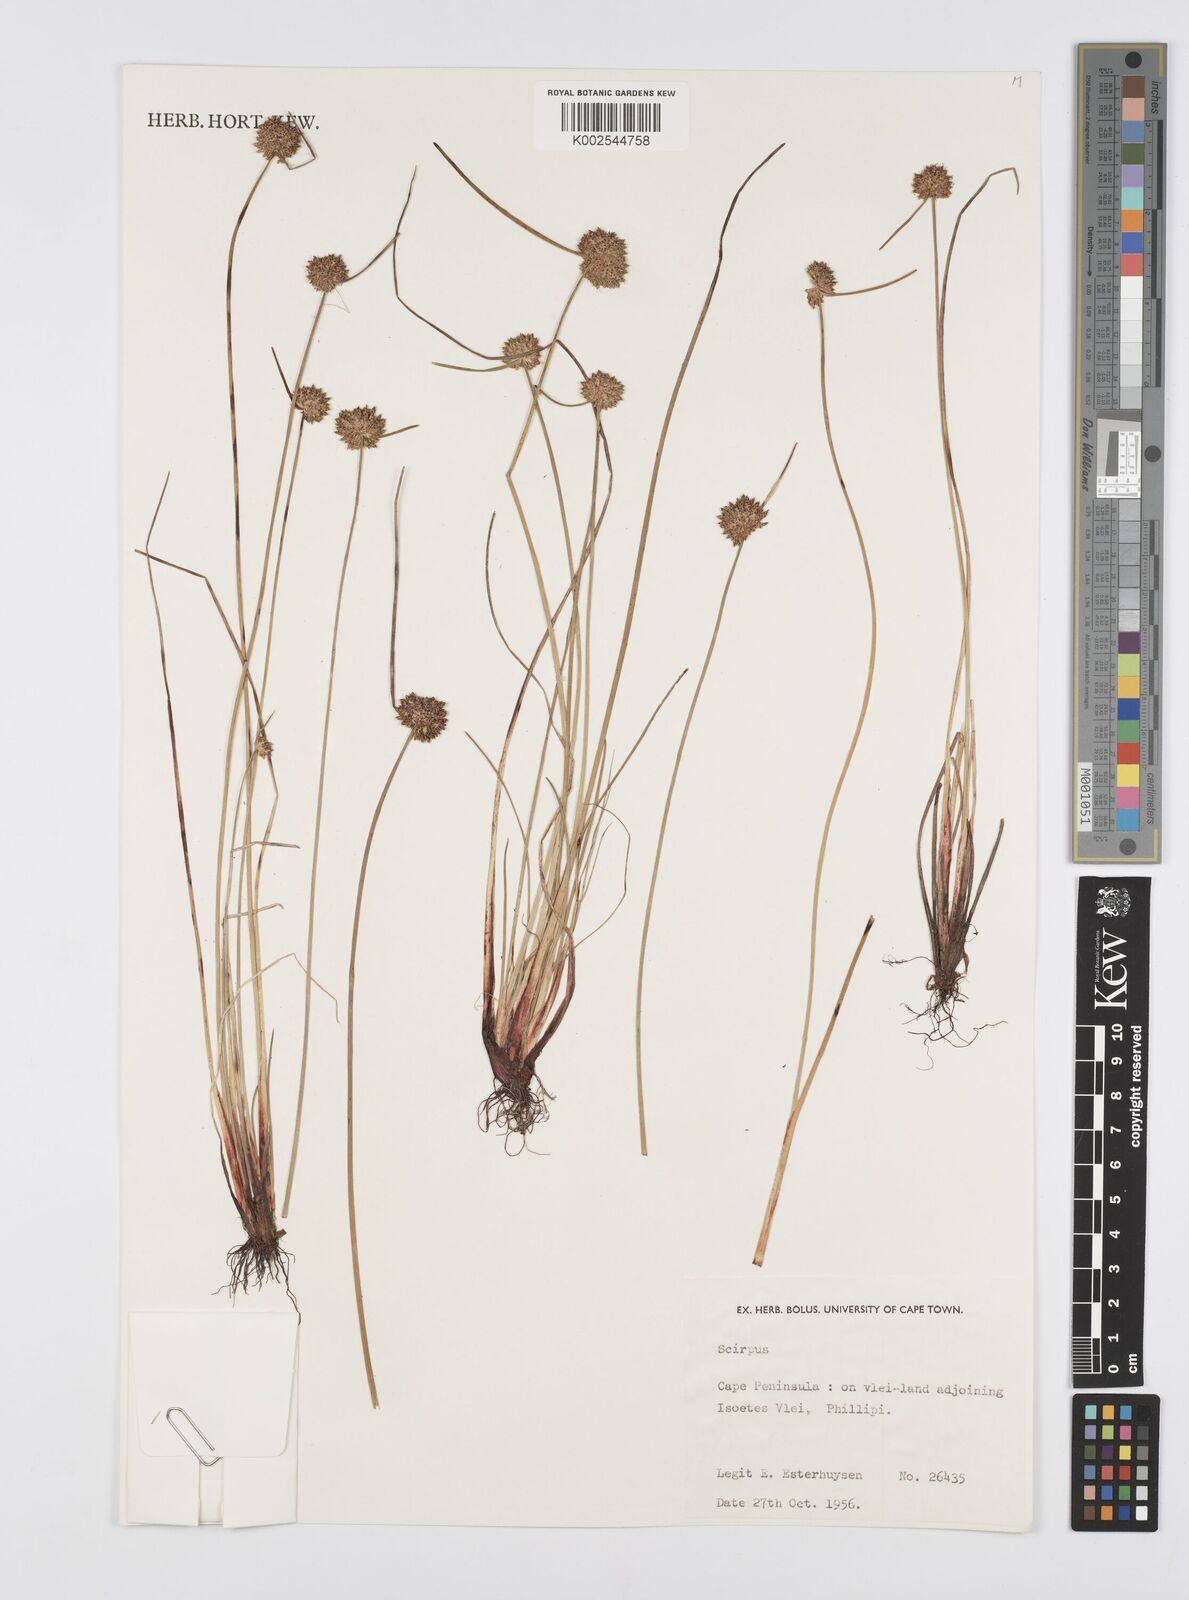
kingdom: Plantae
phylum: Tracheophyta
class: Liliopsida
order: Poales
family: Cyperaceae
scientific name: Cyperaceae
